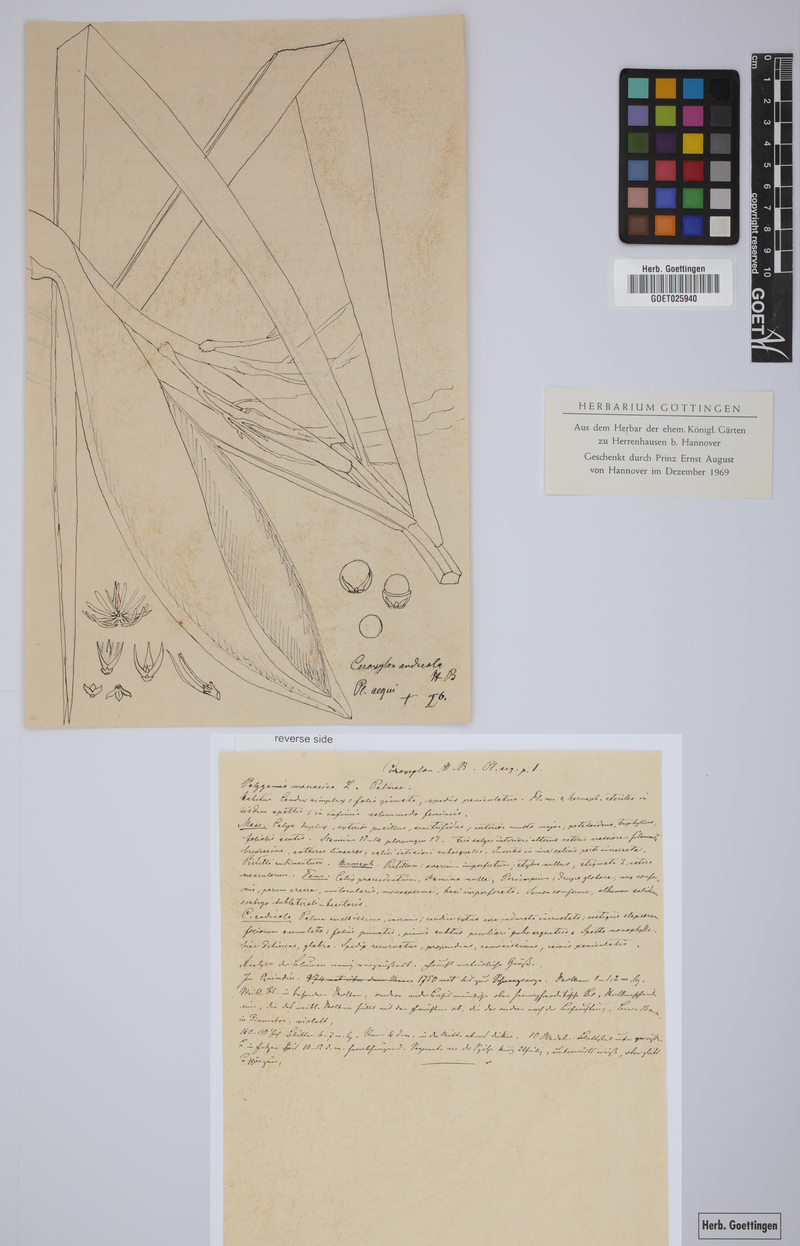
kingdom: Plantae
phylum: Tracheophyta
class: Liliopsida
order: Arecales
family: Arecaceae
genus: Ceroxylon
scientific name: Ceroxylon alpinum
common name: Wax palm
